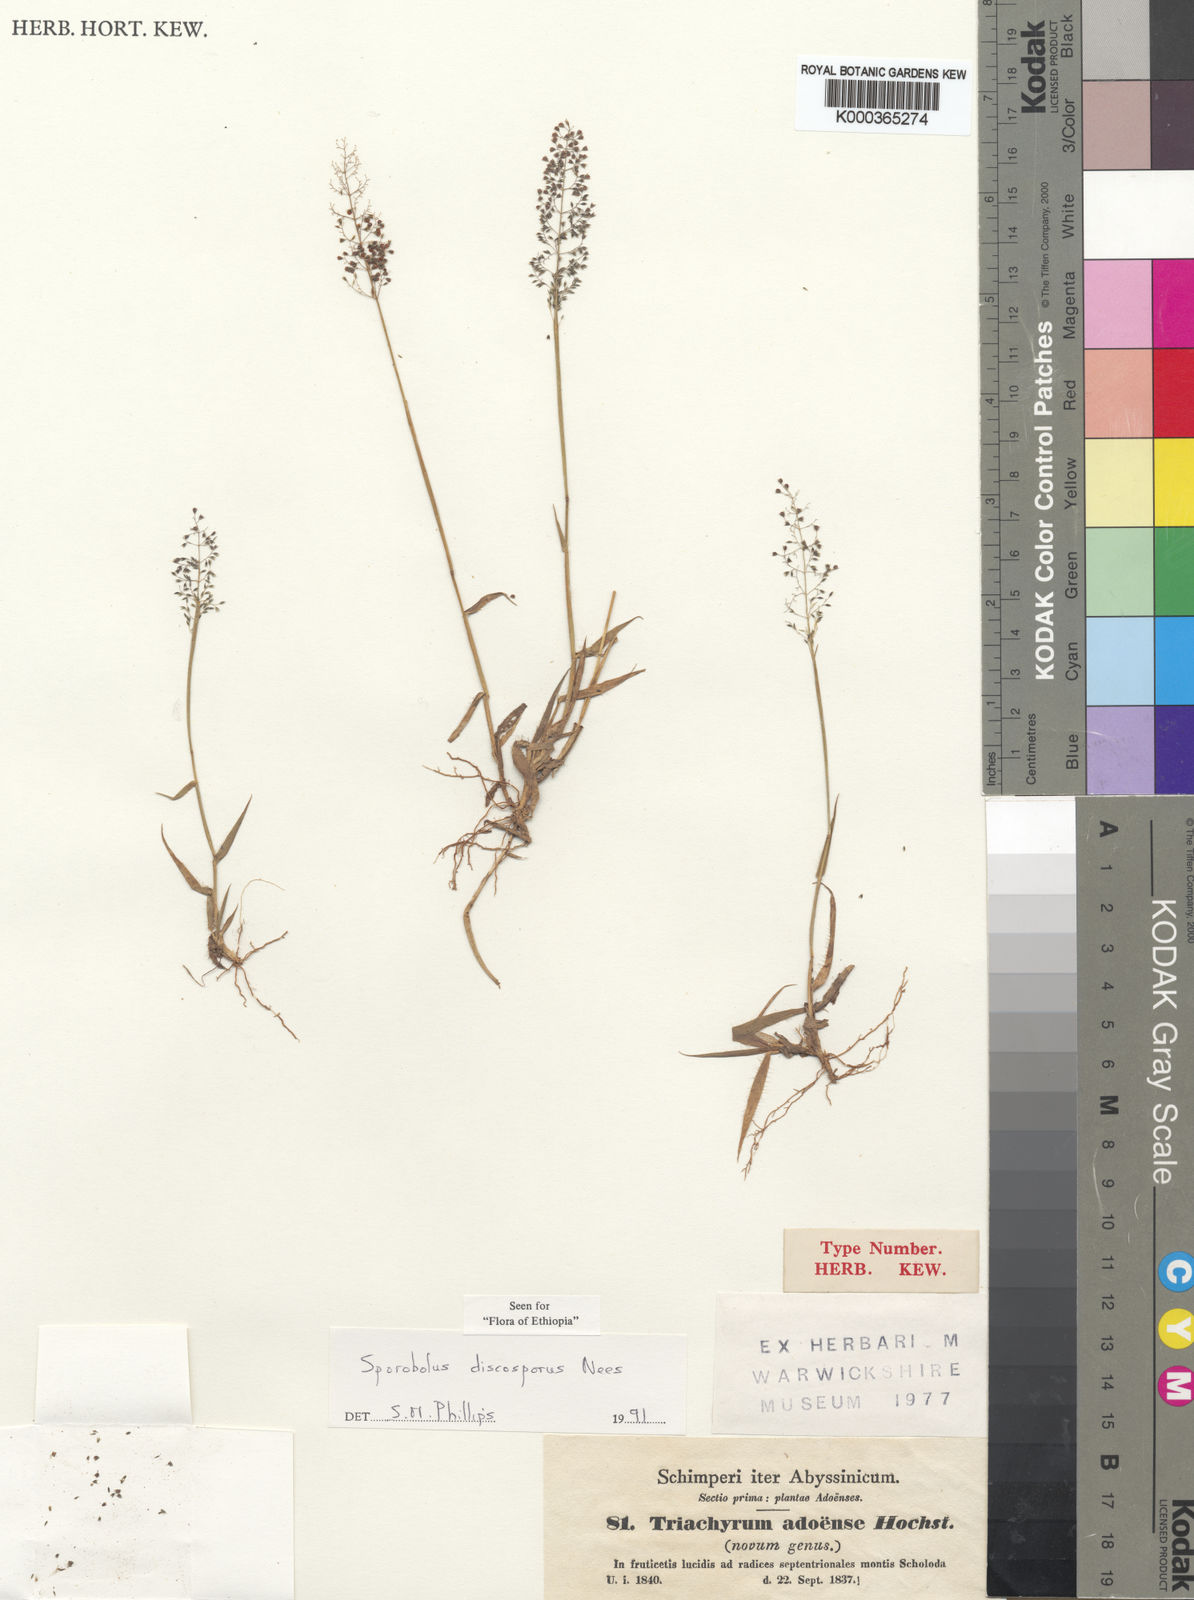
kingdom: Plantae
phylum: Tracheophyta
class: Liliopsida
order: Poales
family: Poaceae
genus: Sporobolus
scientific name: Sporobolus discosporus
